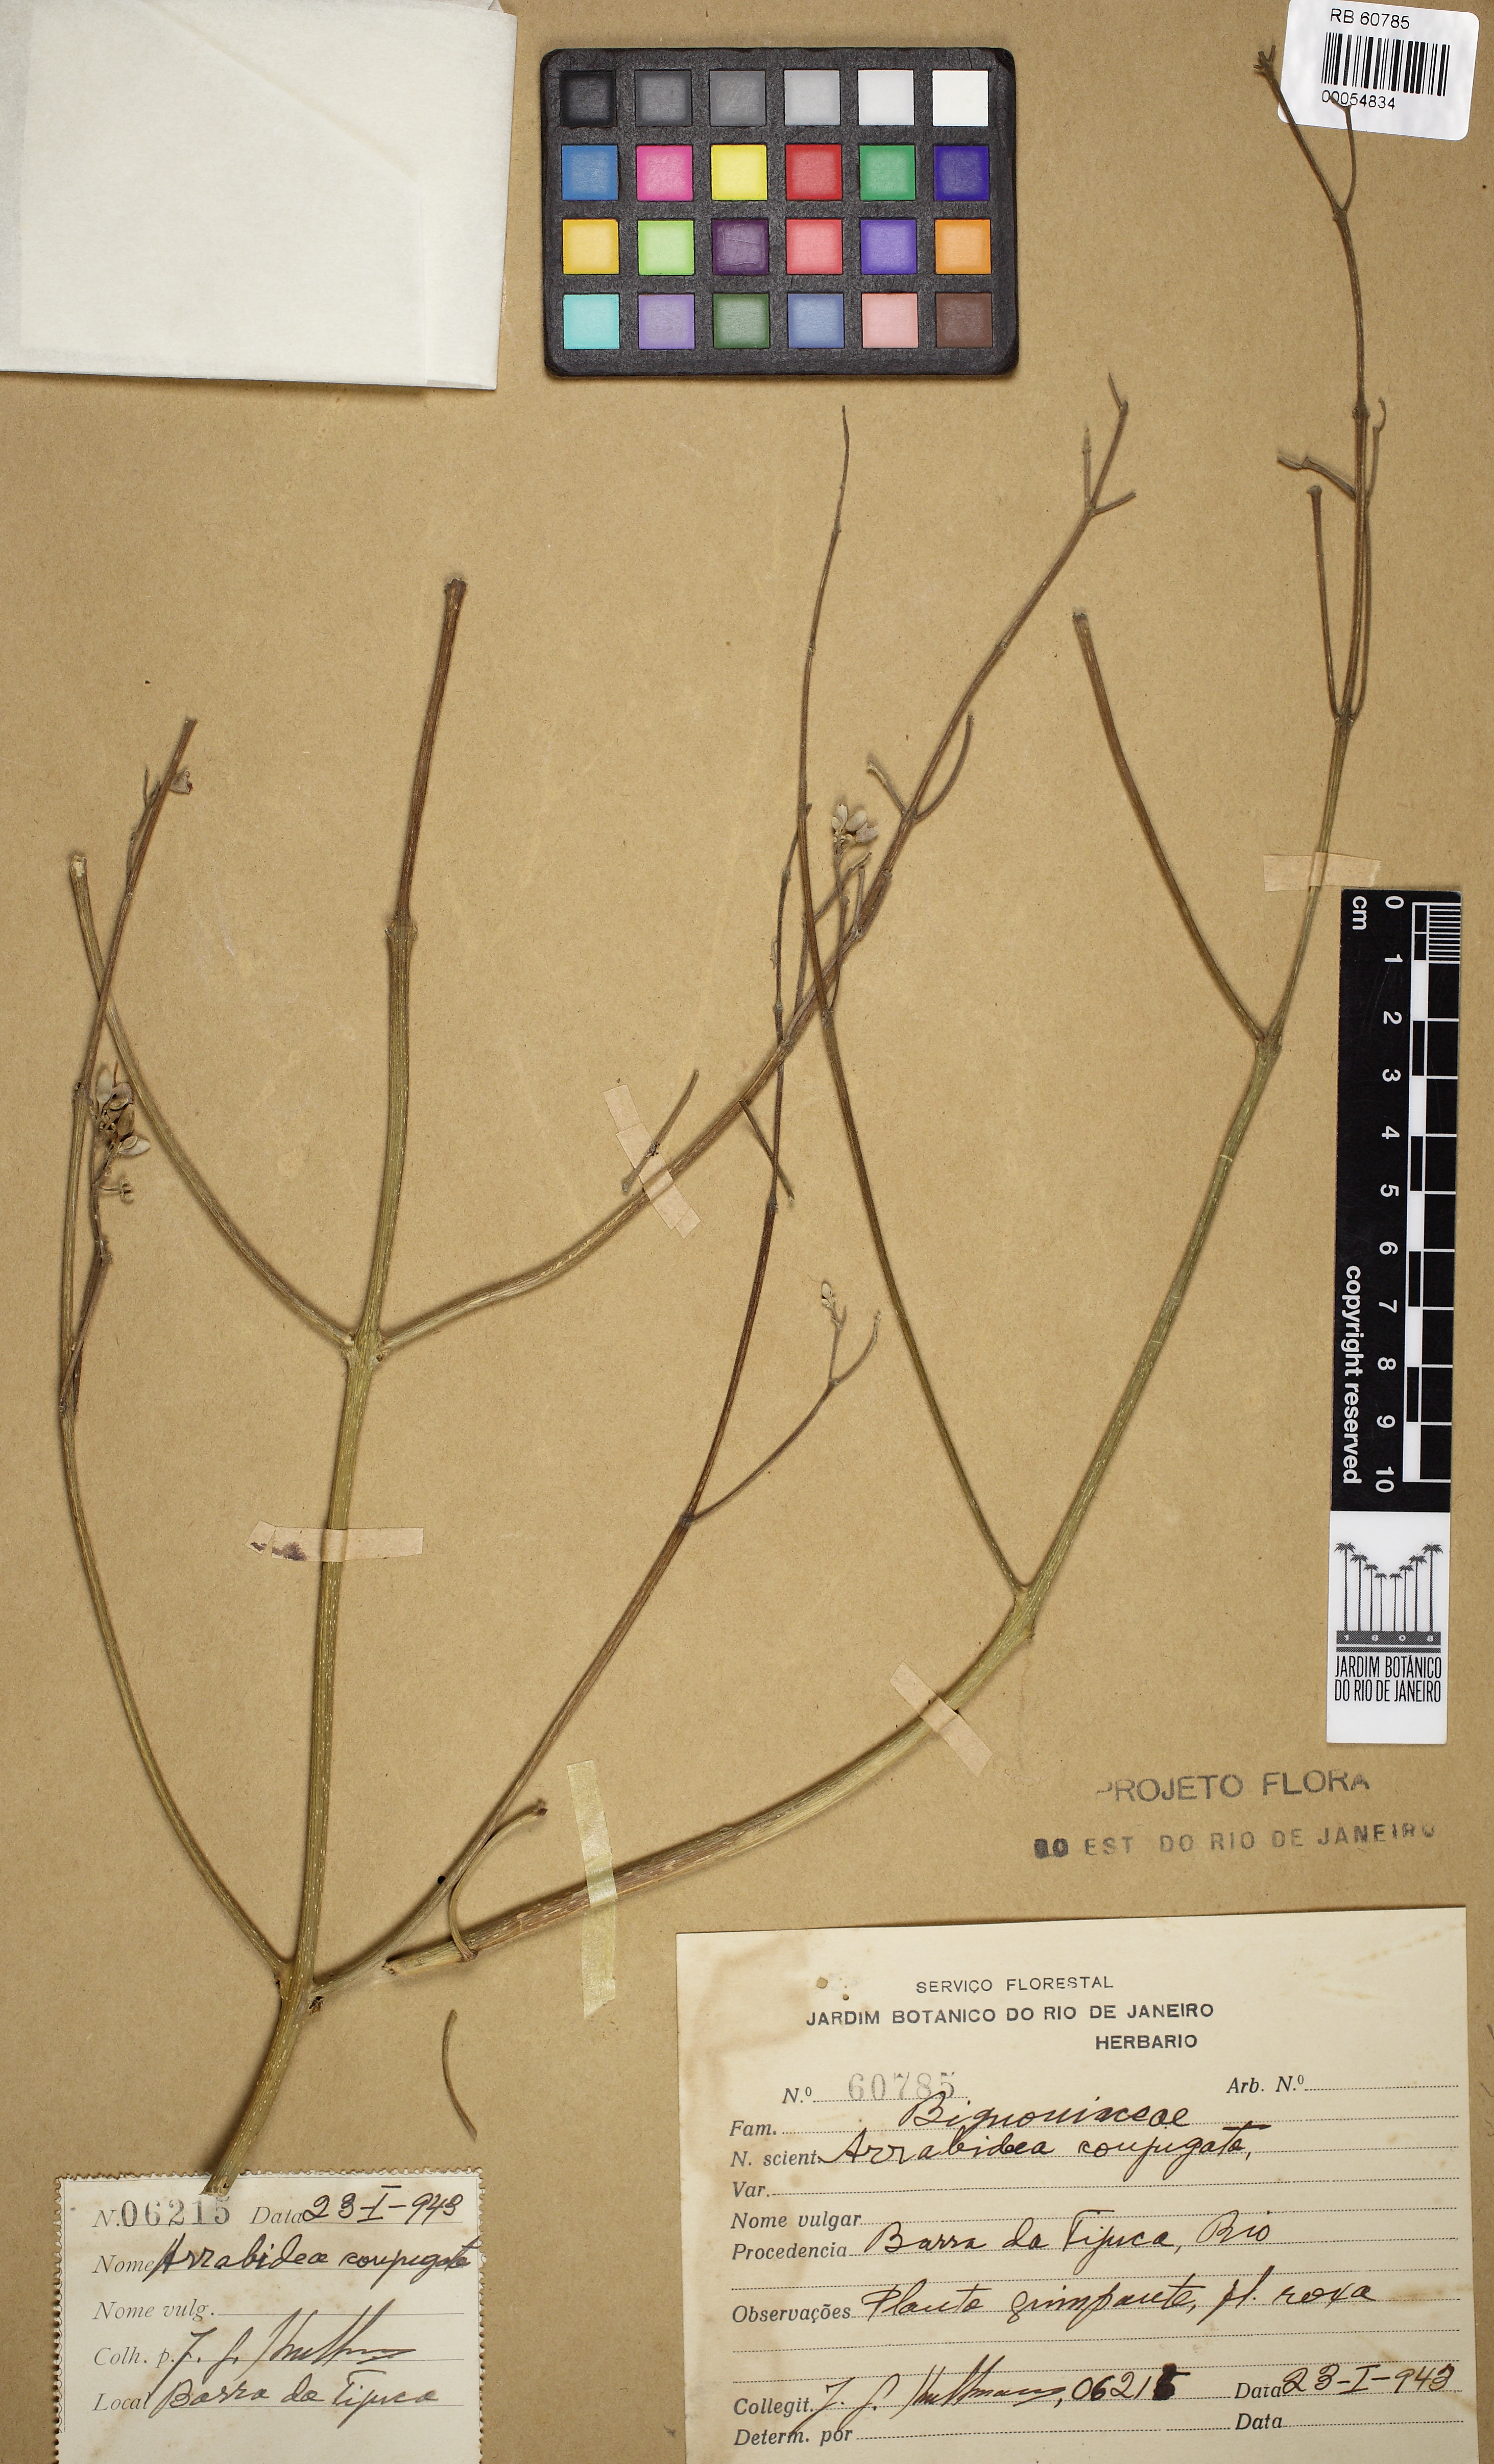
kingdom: Plantae
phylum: Tracheophyta
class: Magnoliopsida
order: Lamiales
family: Bignoniaceae
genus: Fridericia
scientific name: Fridericia conjugata
